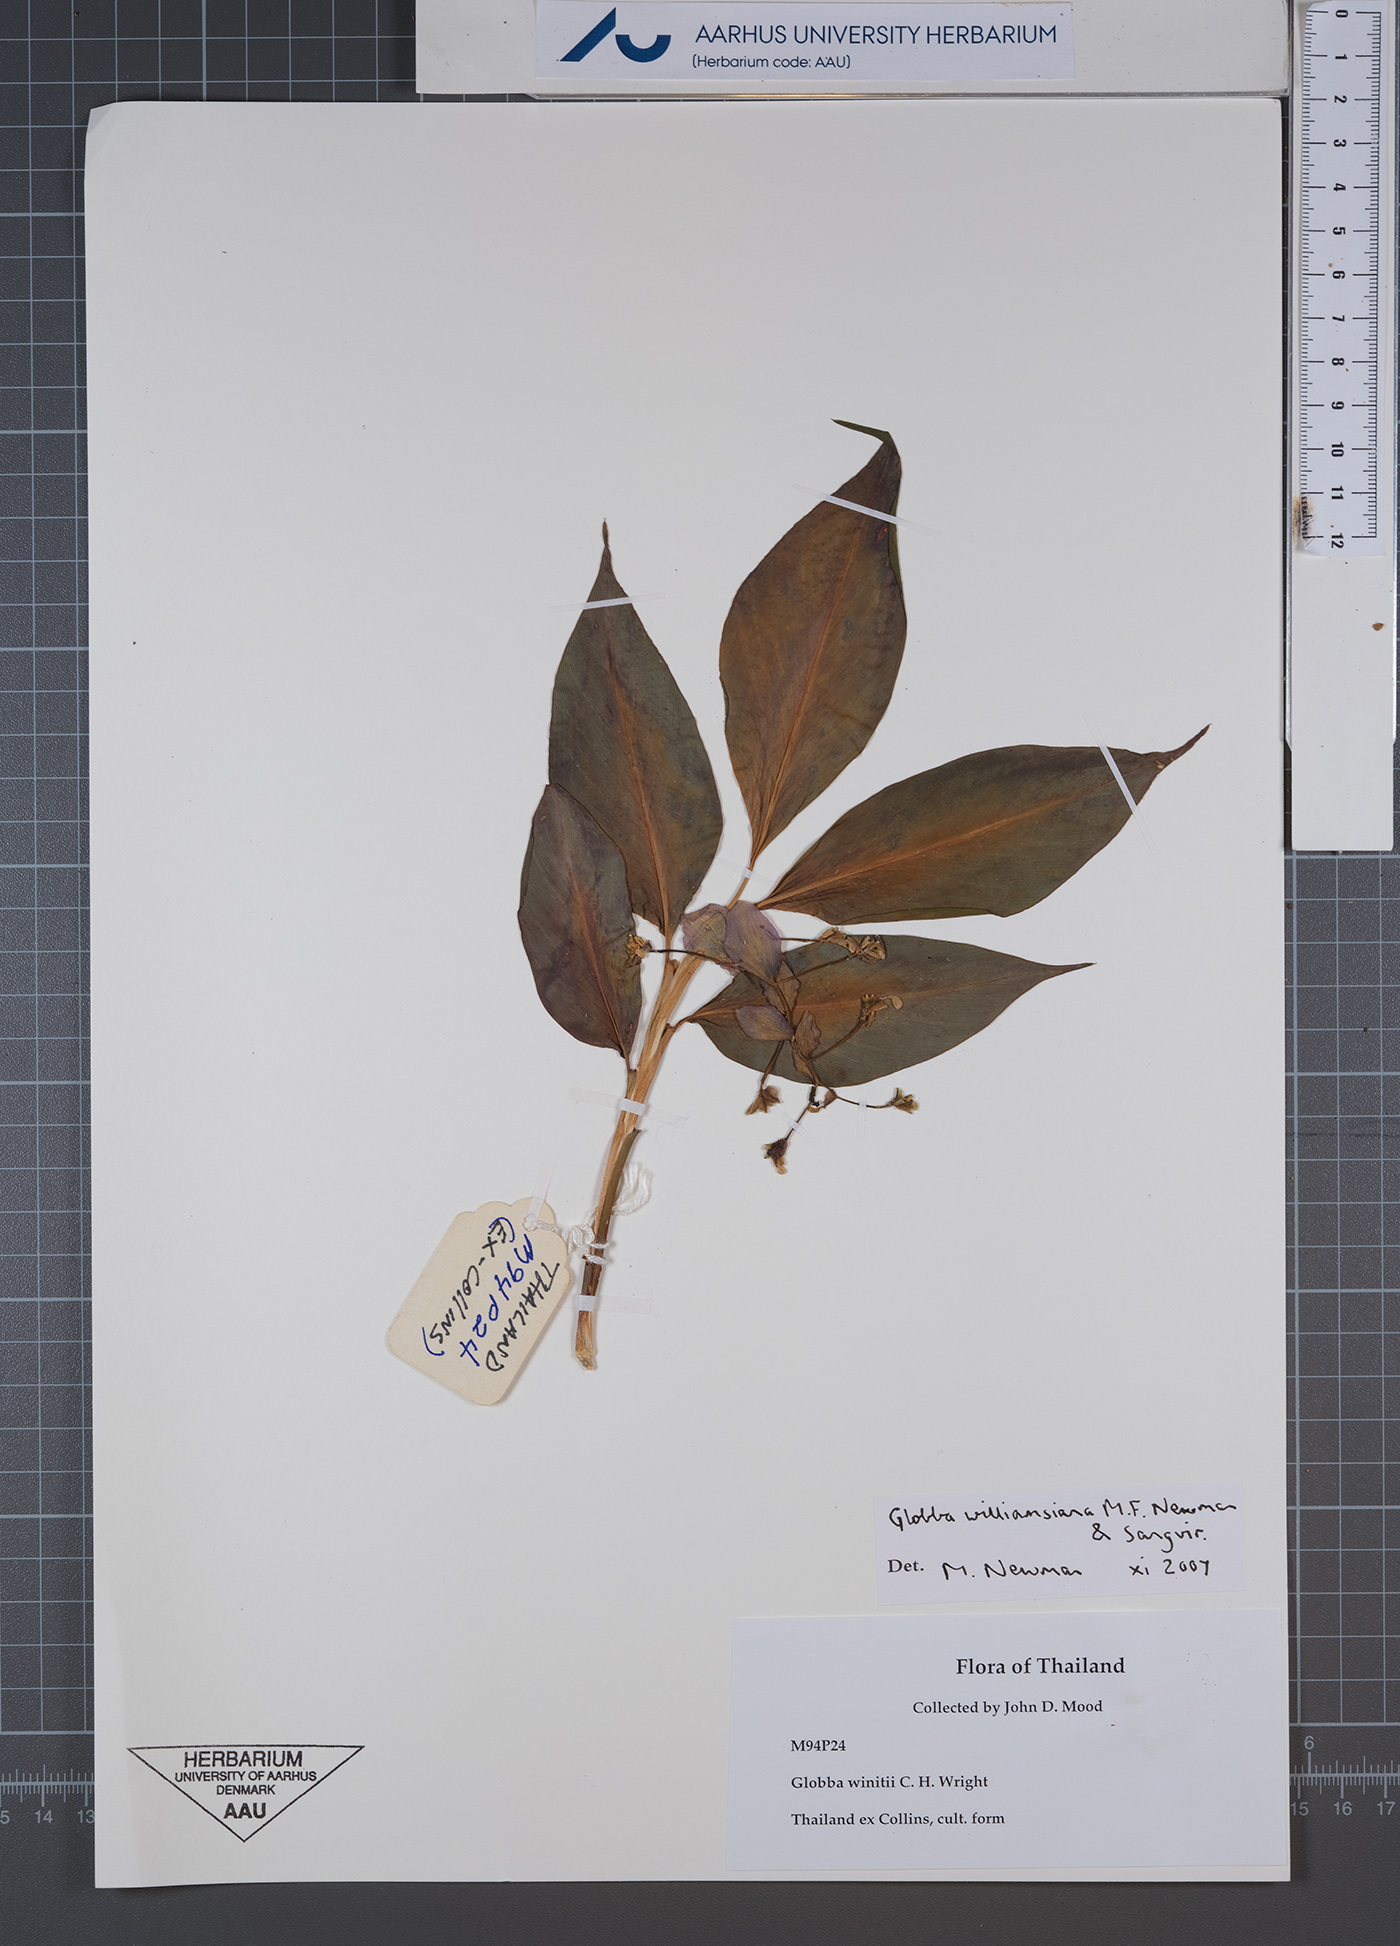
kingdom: Plantae
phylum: Tracheophyta
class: Liliopsida
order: Zingiberales
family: Zingiberaceae
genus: Globba
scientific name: Globba williamsiana
